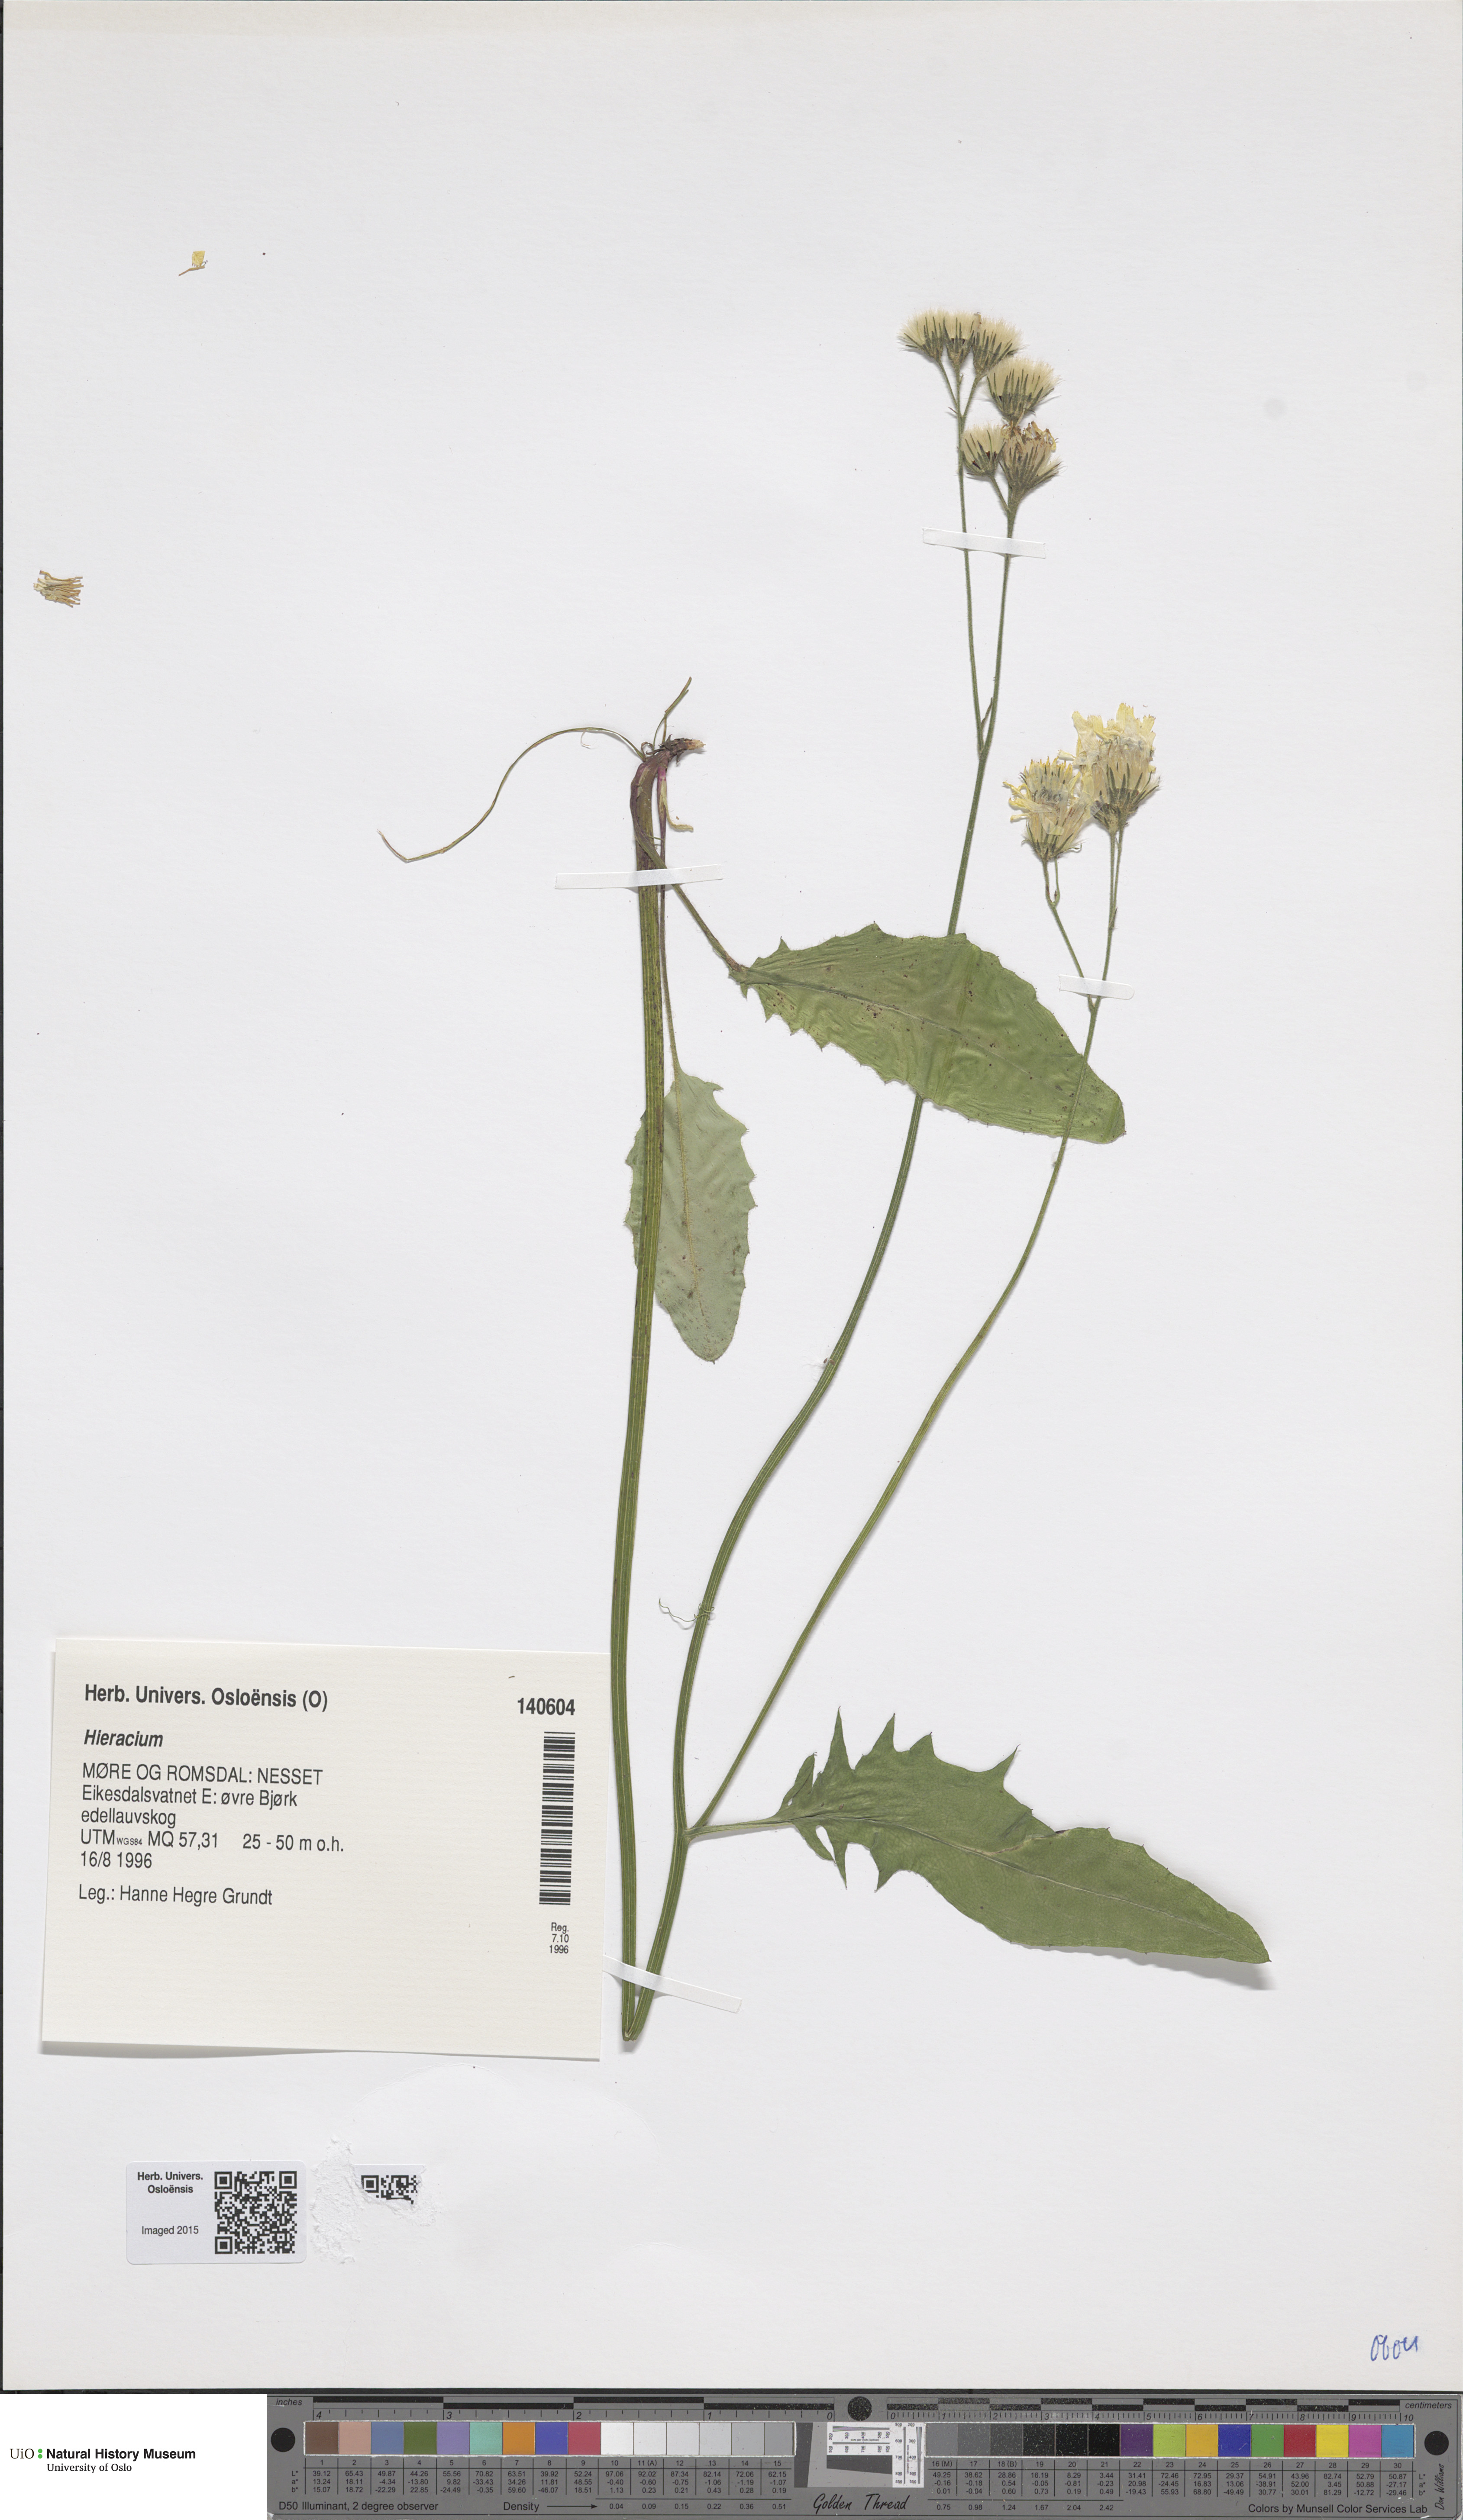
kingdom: Plantae
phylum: Tracheophyta
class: Magnoliopsida
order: Asterales
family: Asteraceae
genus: Hieracium
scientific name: Hieracium
